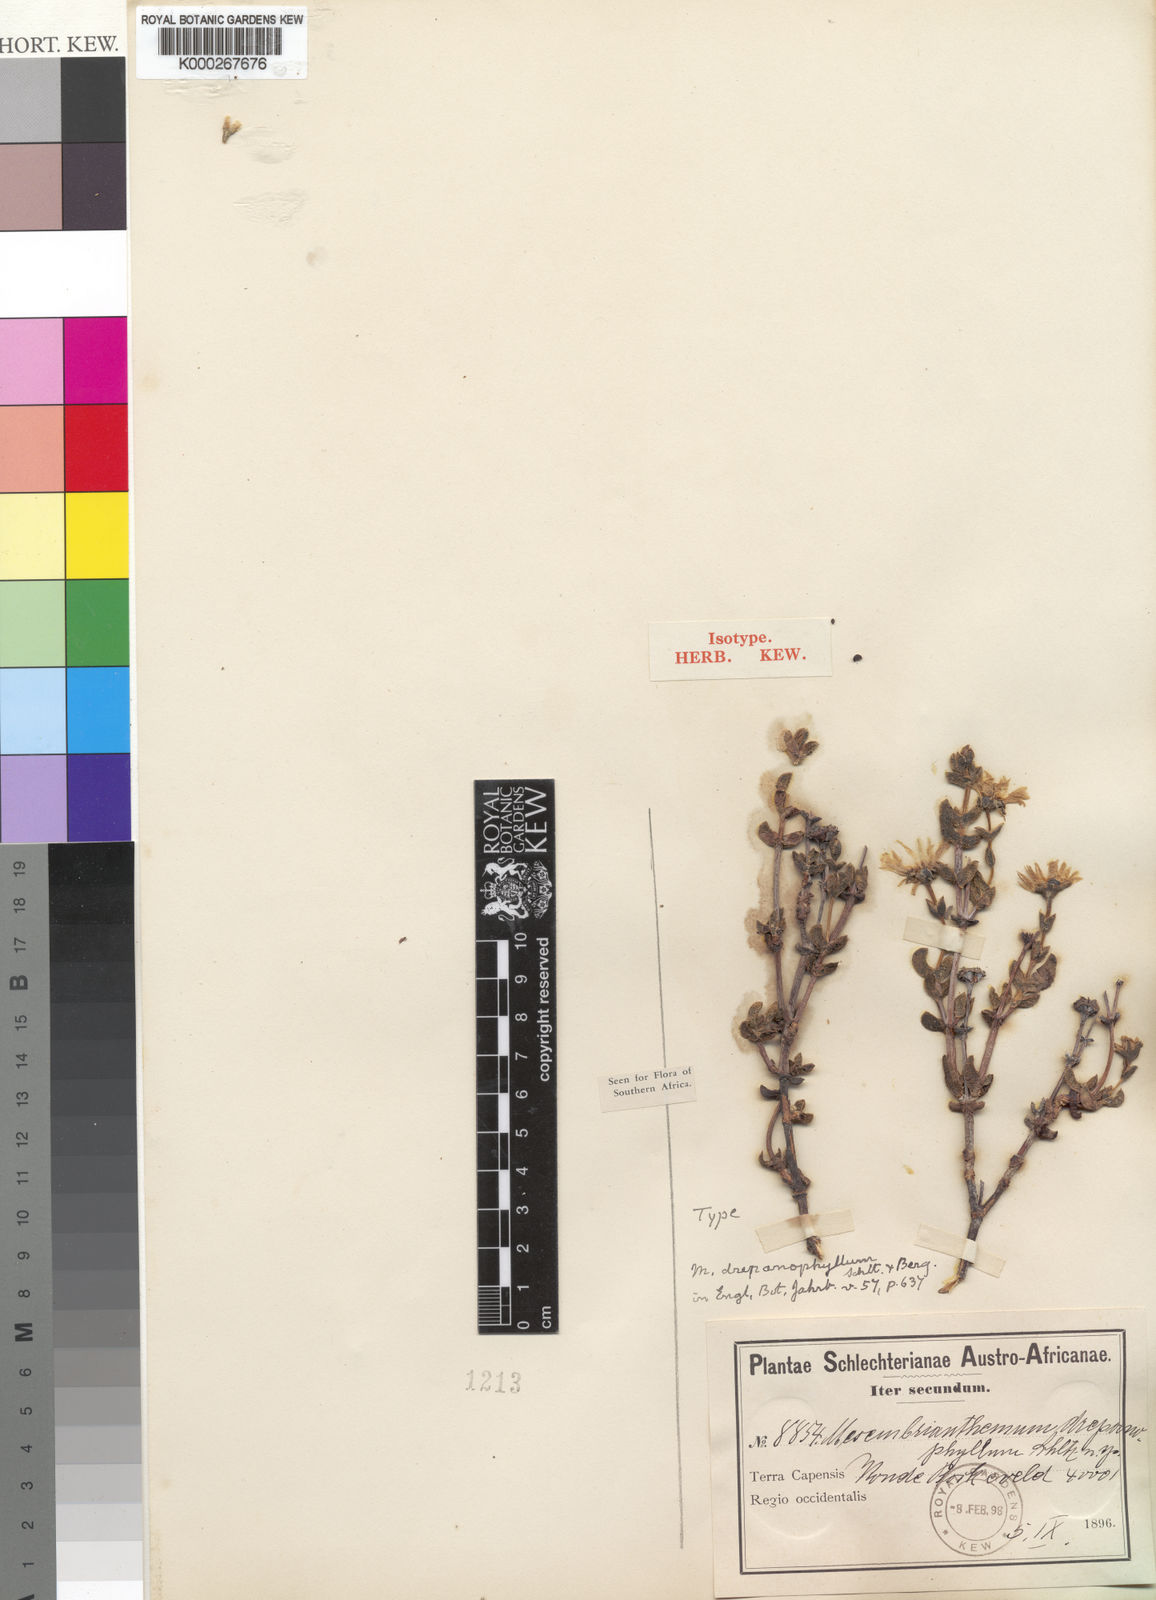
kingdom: Plantae
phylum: Tracheophyta
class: Magnoliopsida
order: Caryophyllales
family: Aizoaceae
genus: Esterhuysenia
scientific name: Esterhuysenia drepanophylla
